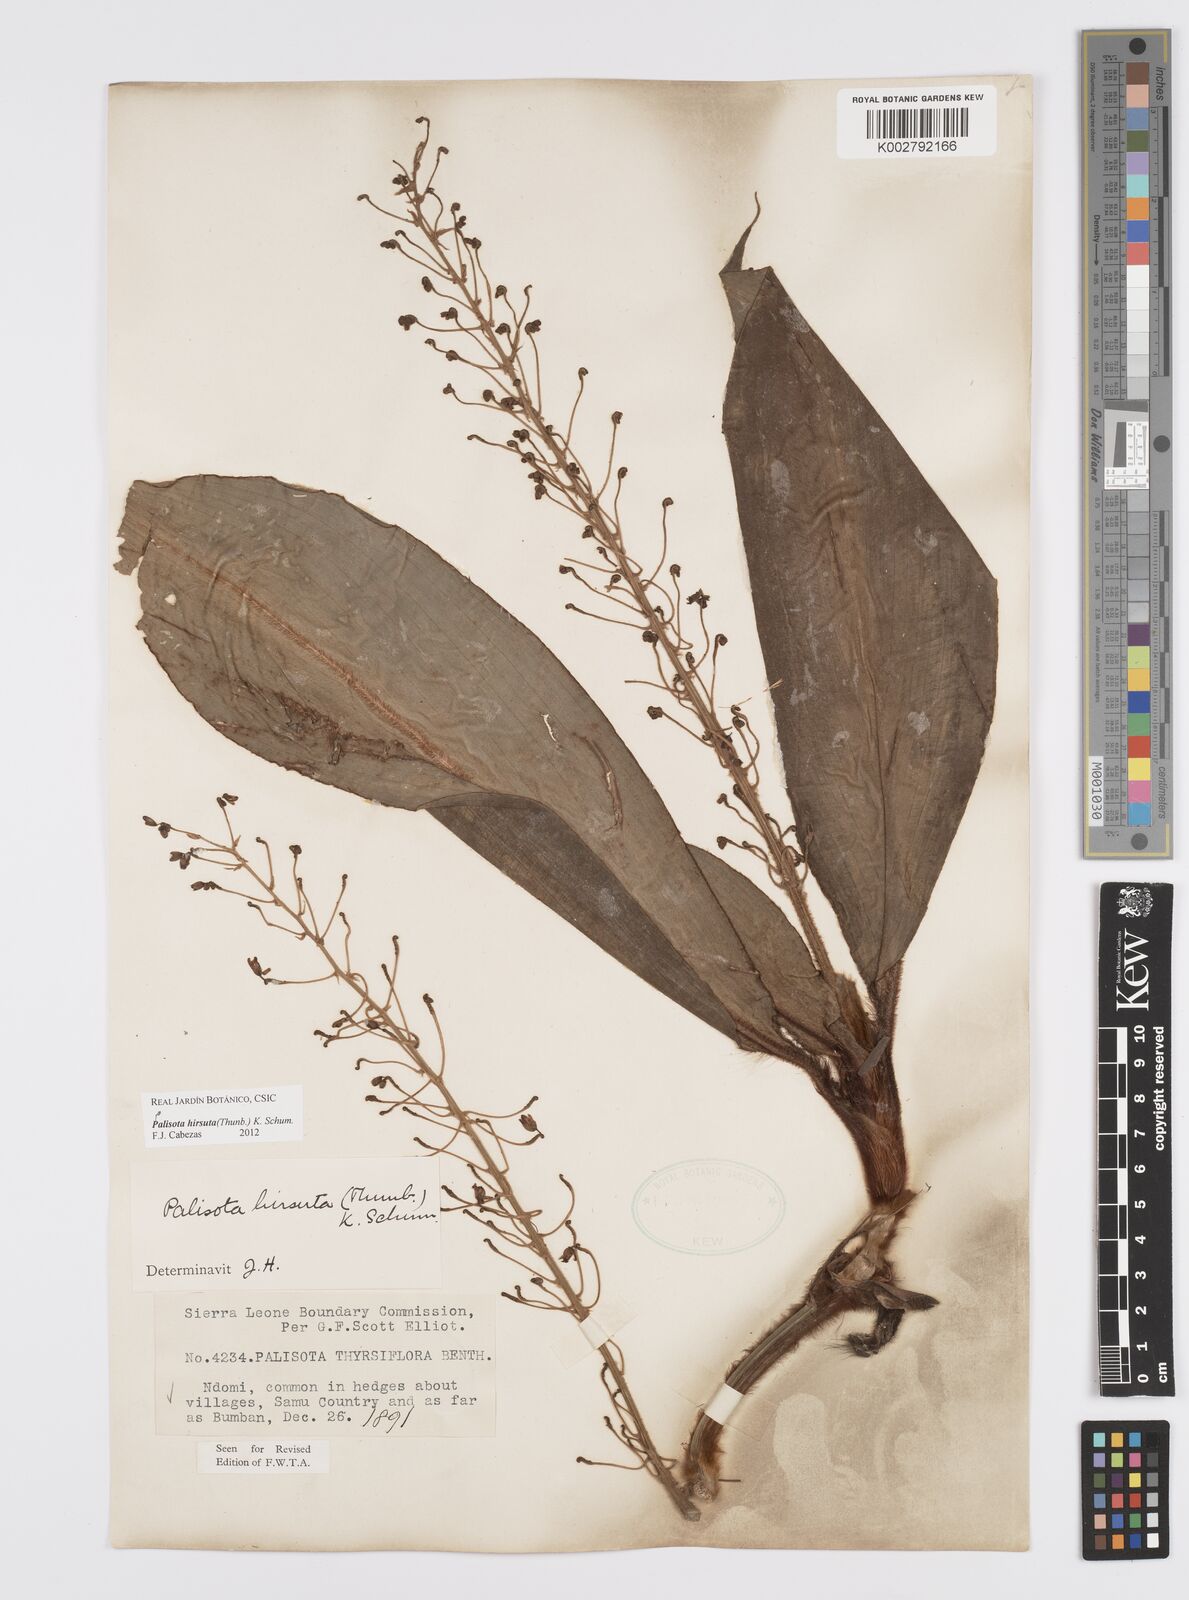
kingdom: Plantae
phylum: Tracheophyta
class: Liliopsida
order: Commelinales
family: Commelinaceae
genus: Palisota
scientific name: Palisota hirsuta
